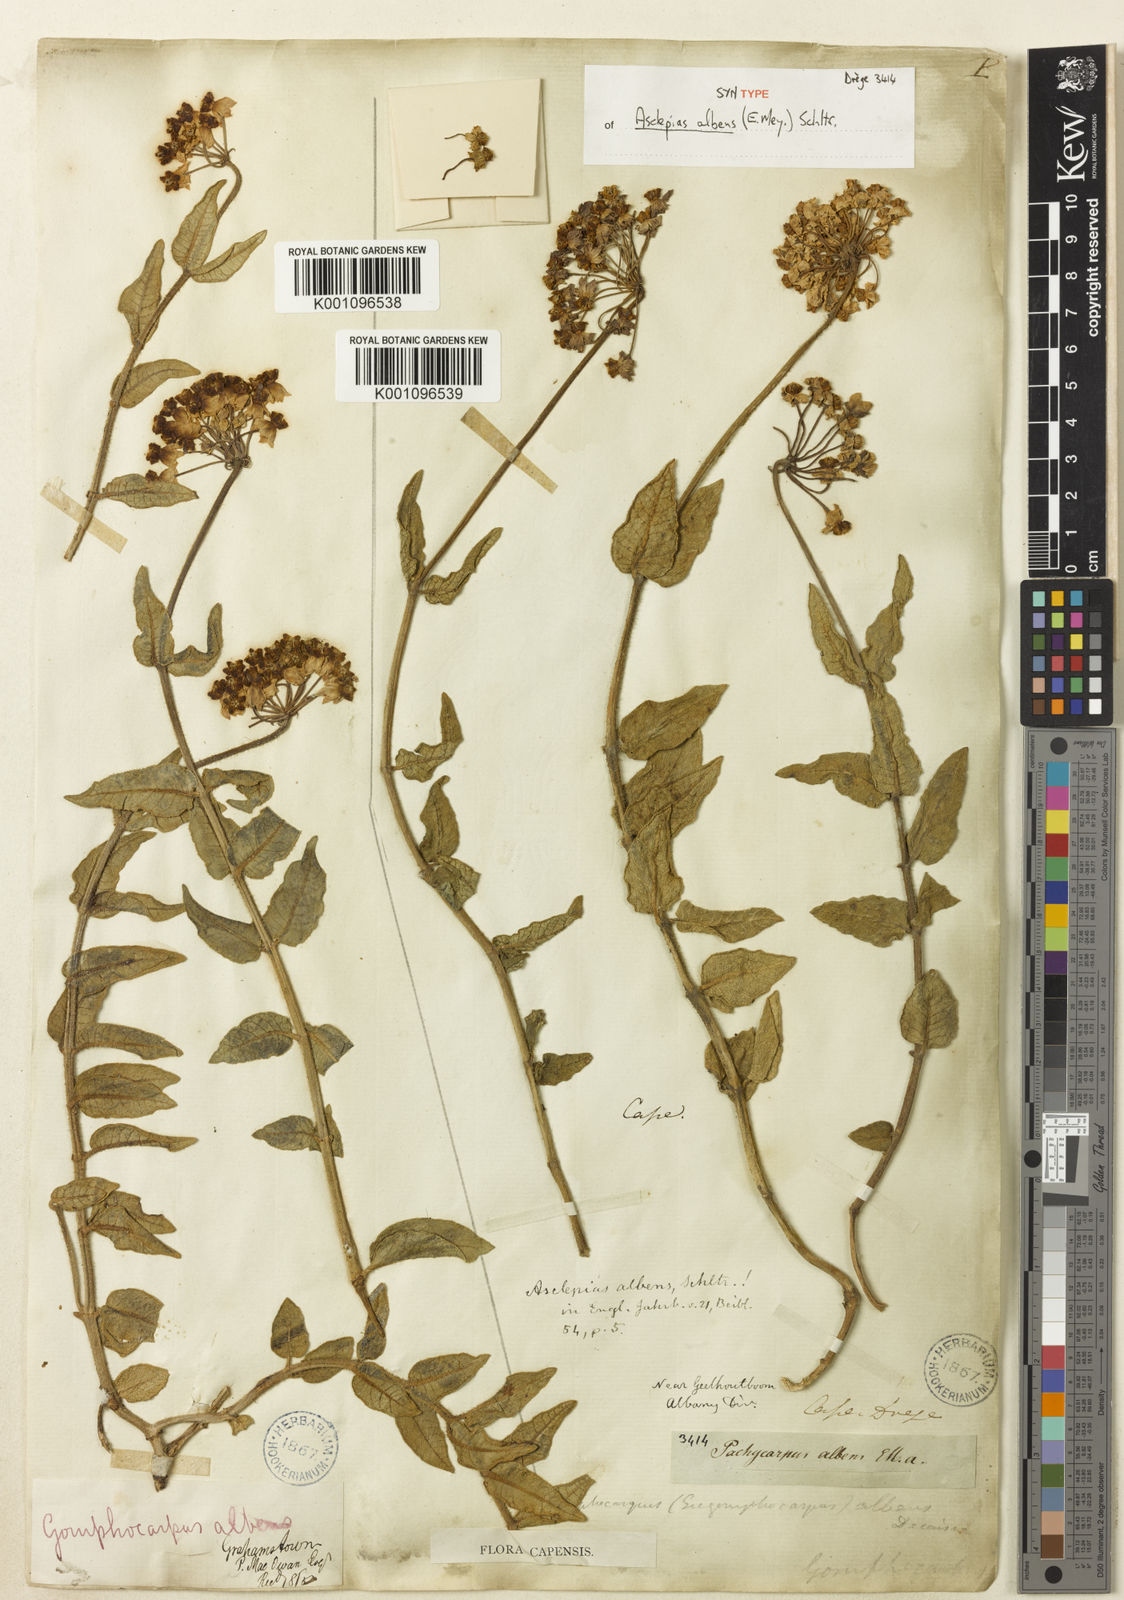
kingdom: Plantae
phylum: Tracheophyta
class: Magnoliopsida
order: Gentianales
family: Apocynaceae
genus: Asclepias
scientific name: Asclepias albens
